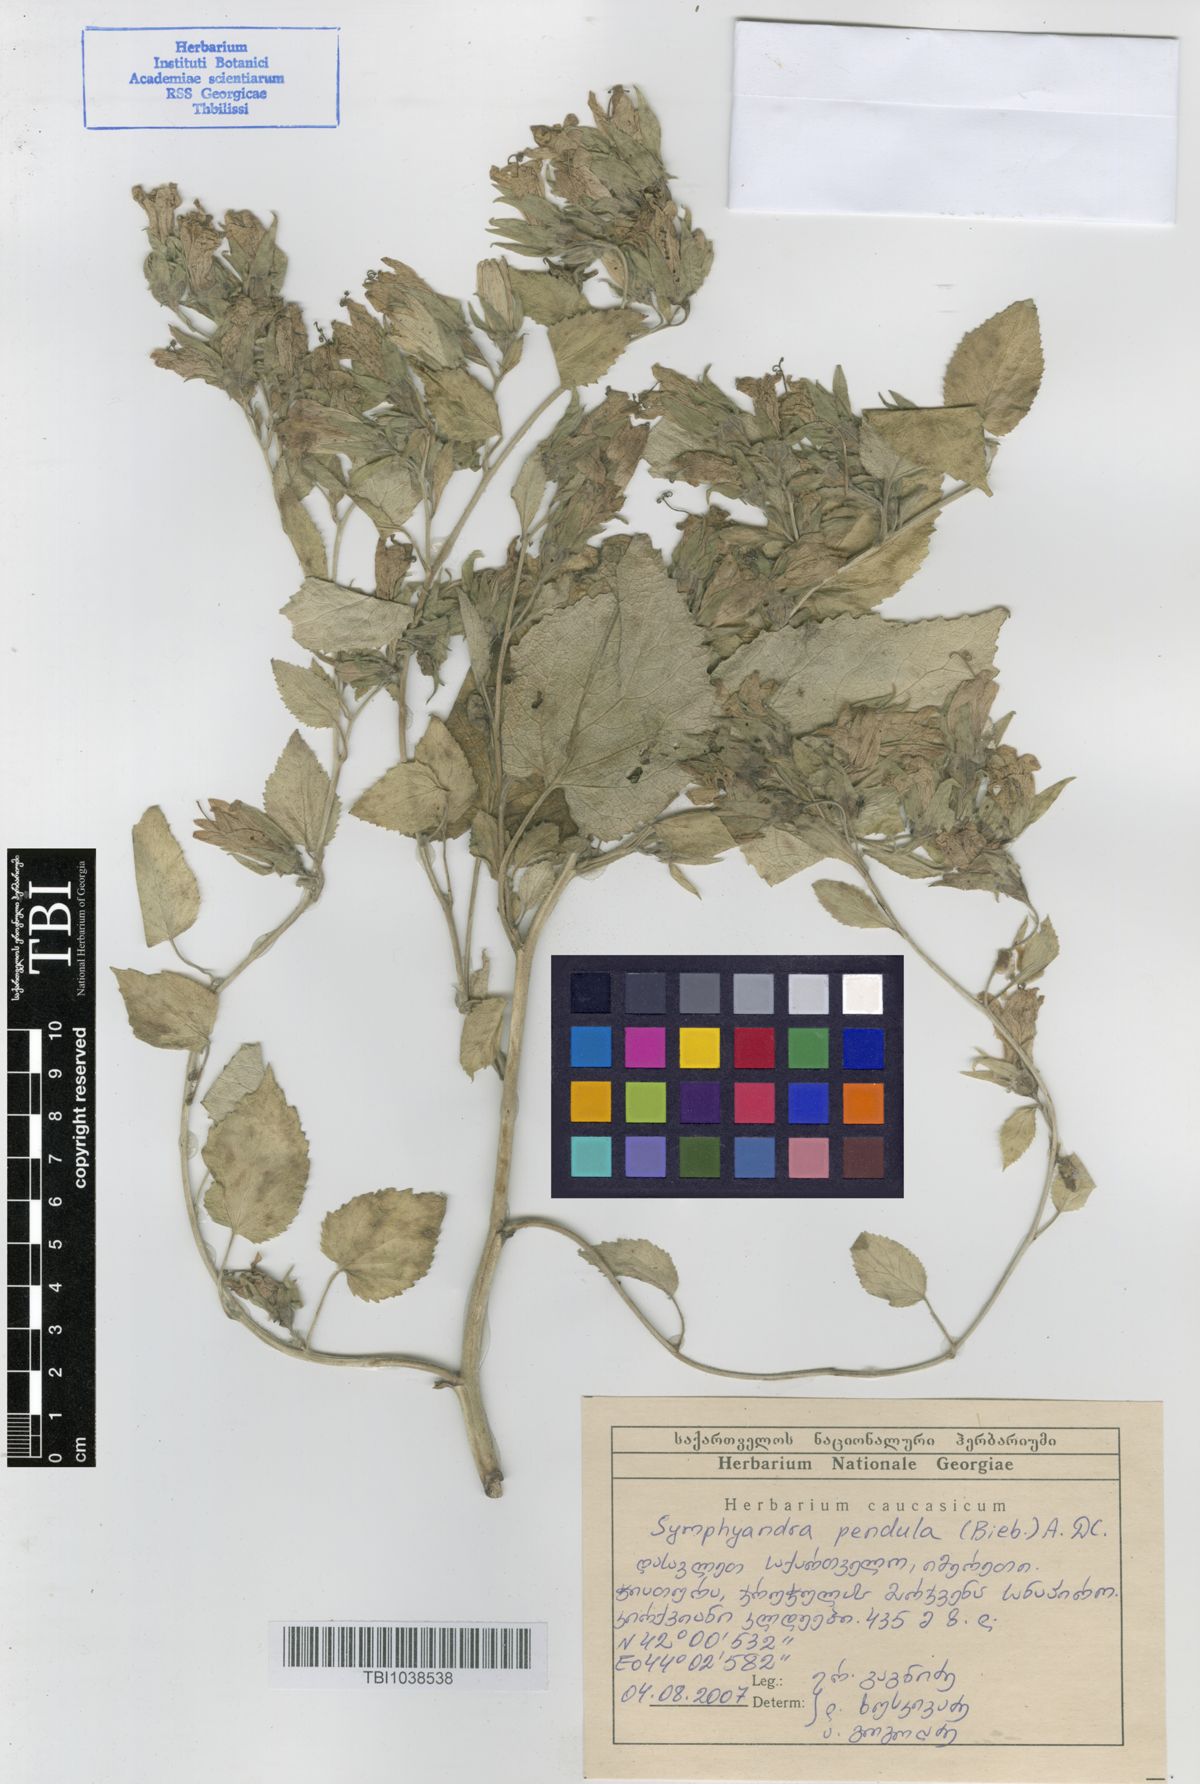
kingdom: Plantae
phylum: Tracheophyta
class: Magnoliopsida
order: Asterales
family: Campanulaceae
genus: Campanula
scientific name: Campanula pendula
